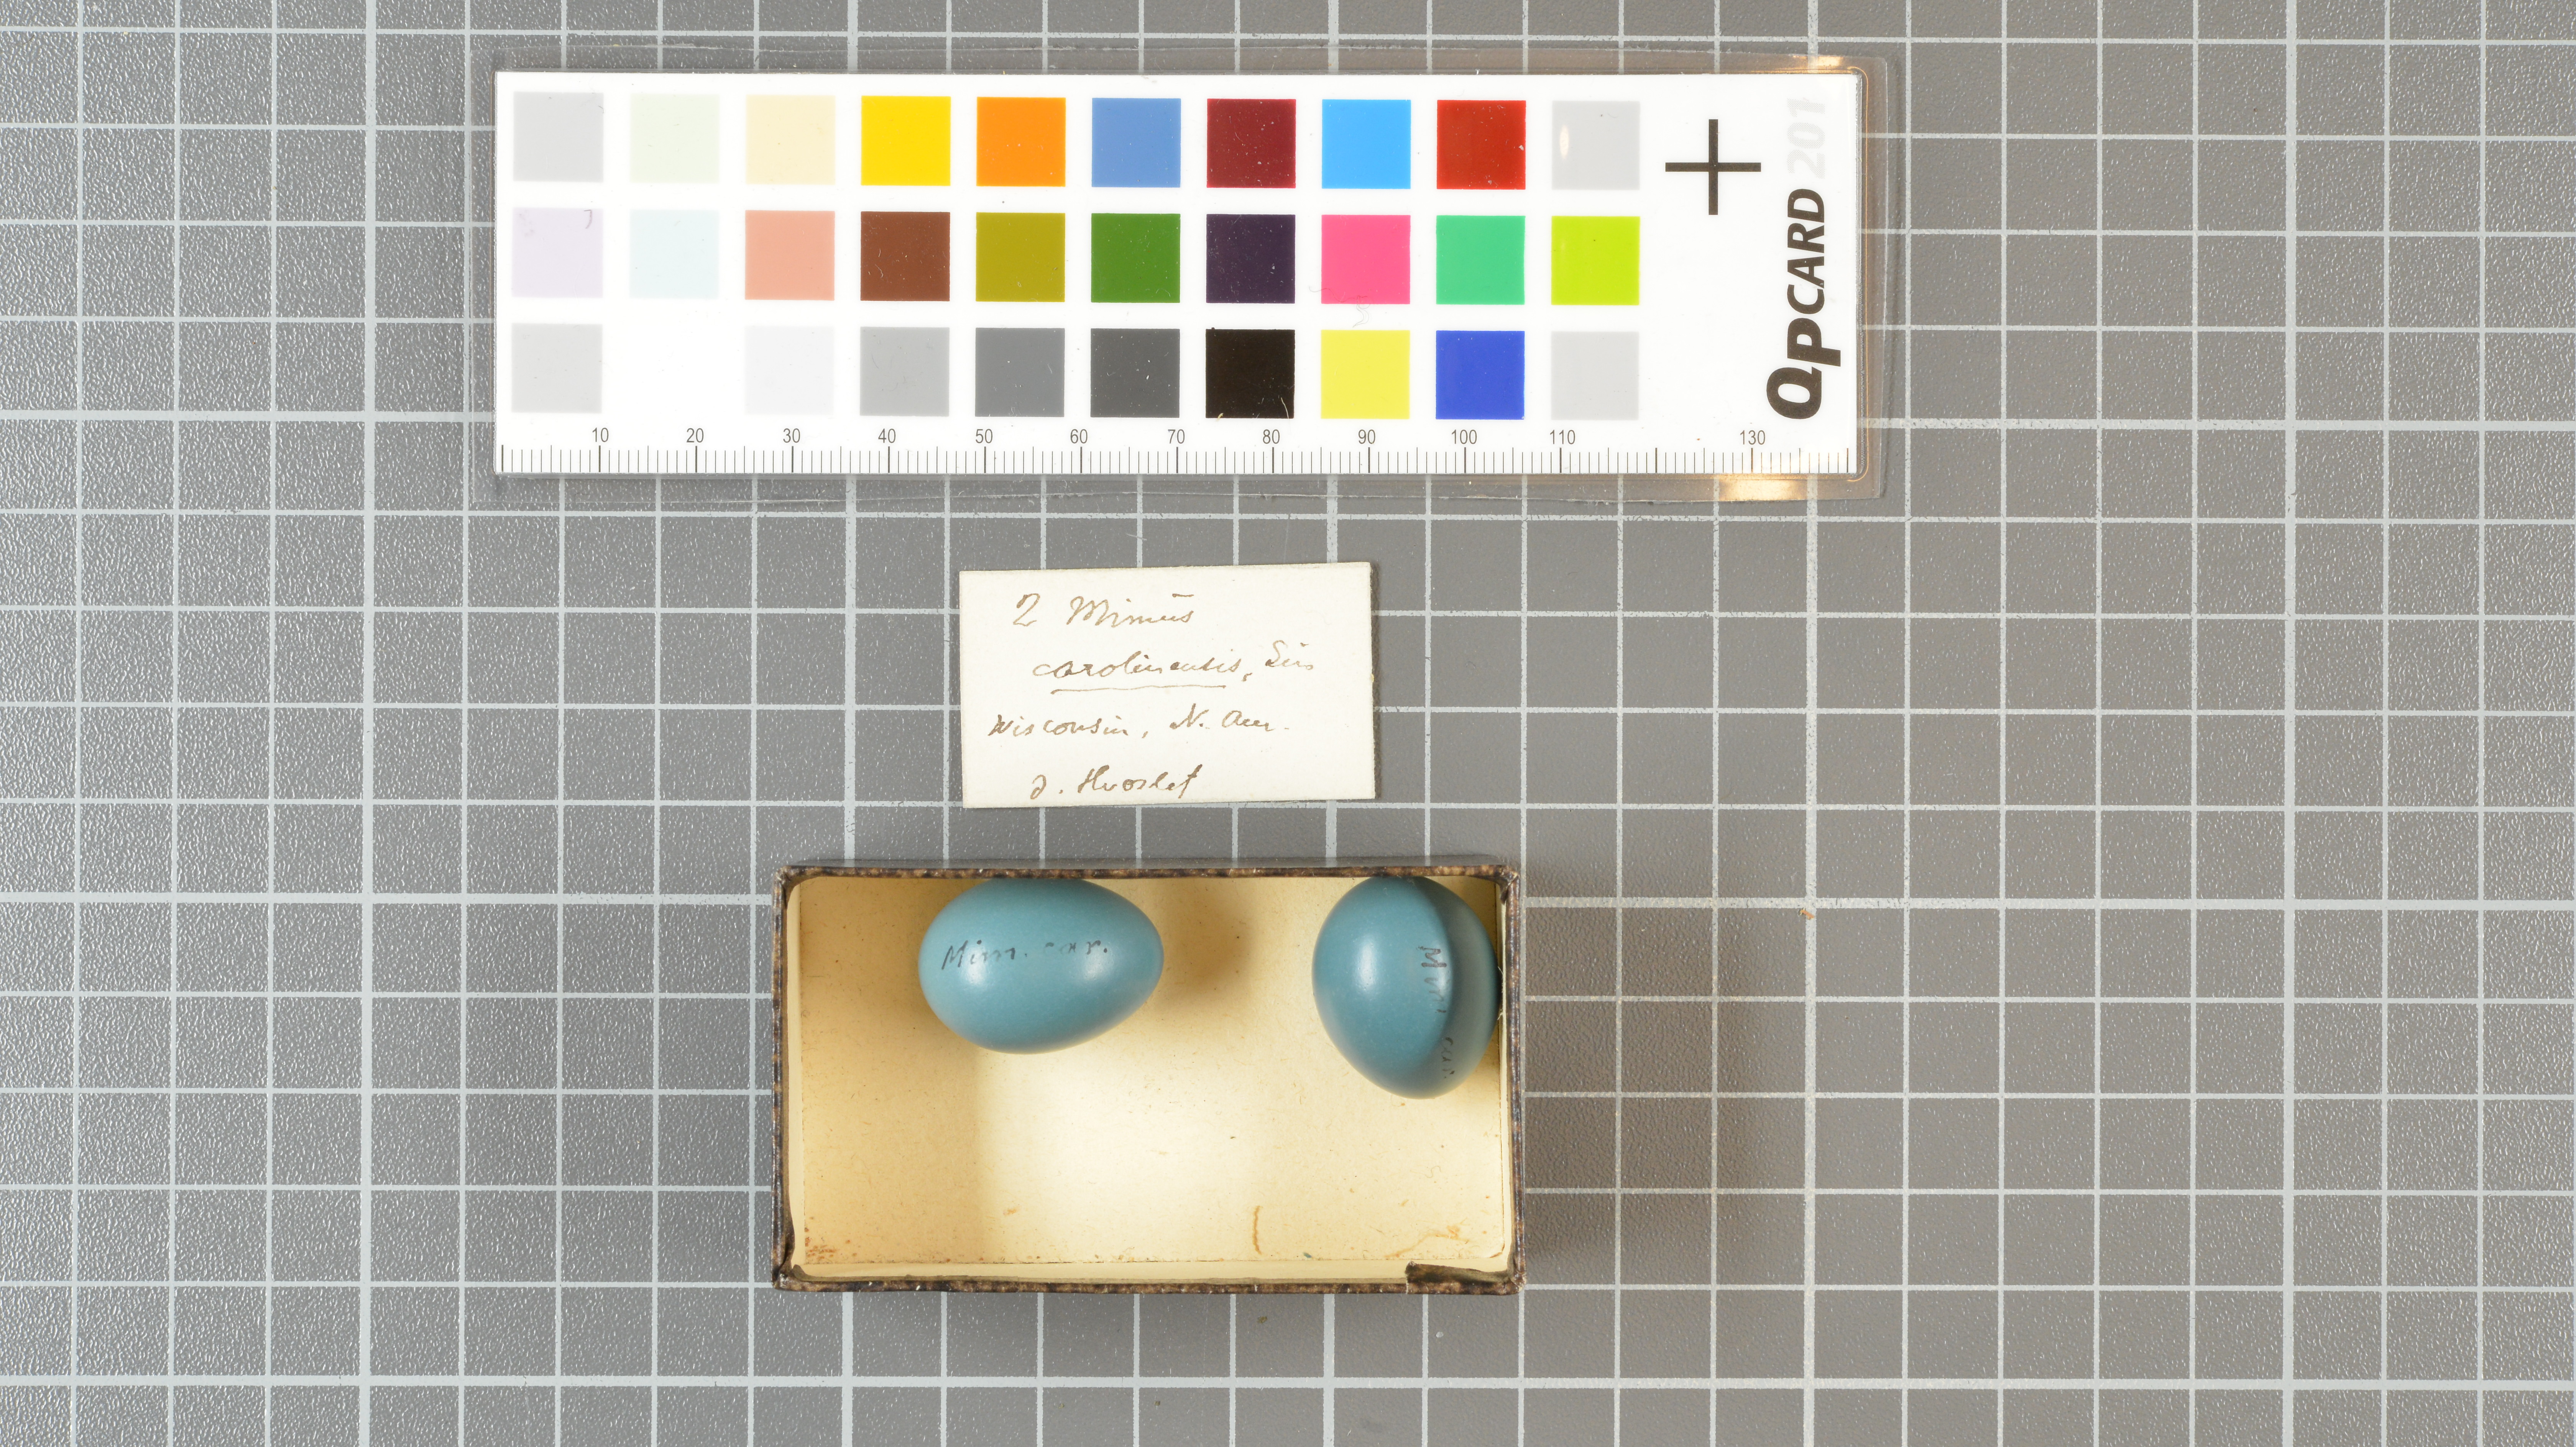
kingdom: Animalia
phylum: Chordata
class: Aves
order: Passeriformes
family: Mimidae
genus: Dumetella
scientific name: Dumetella carolinensis
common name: Gray catbird
